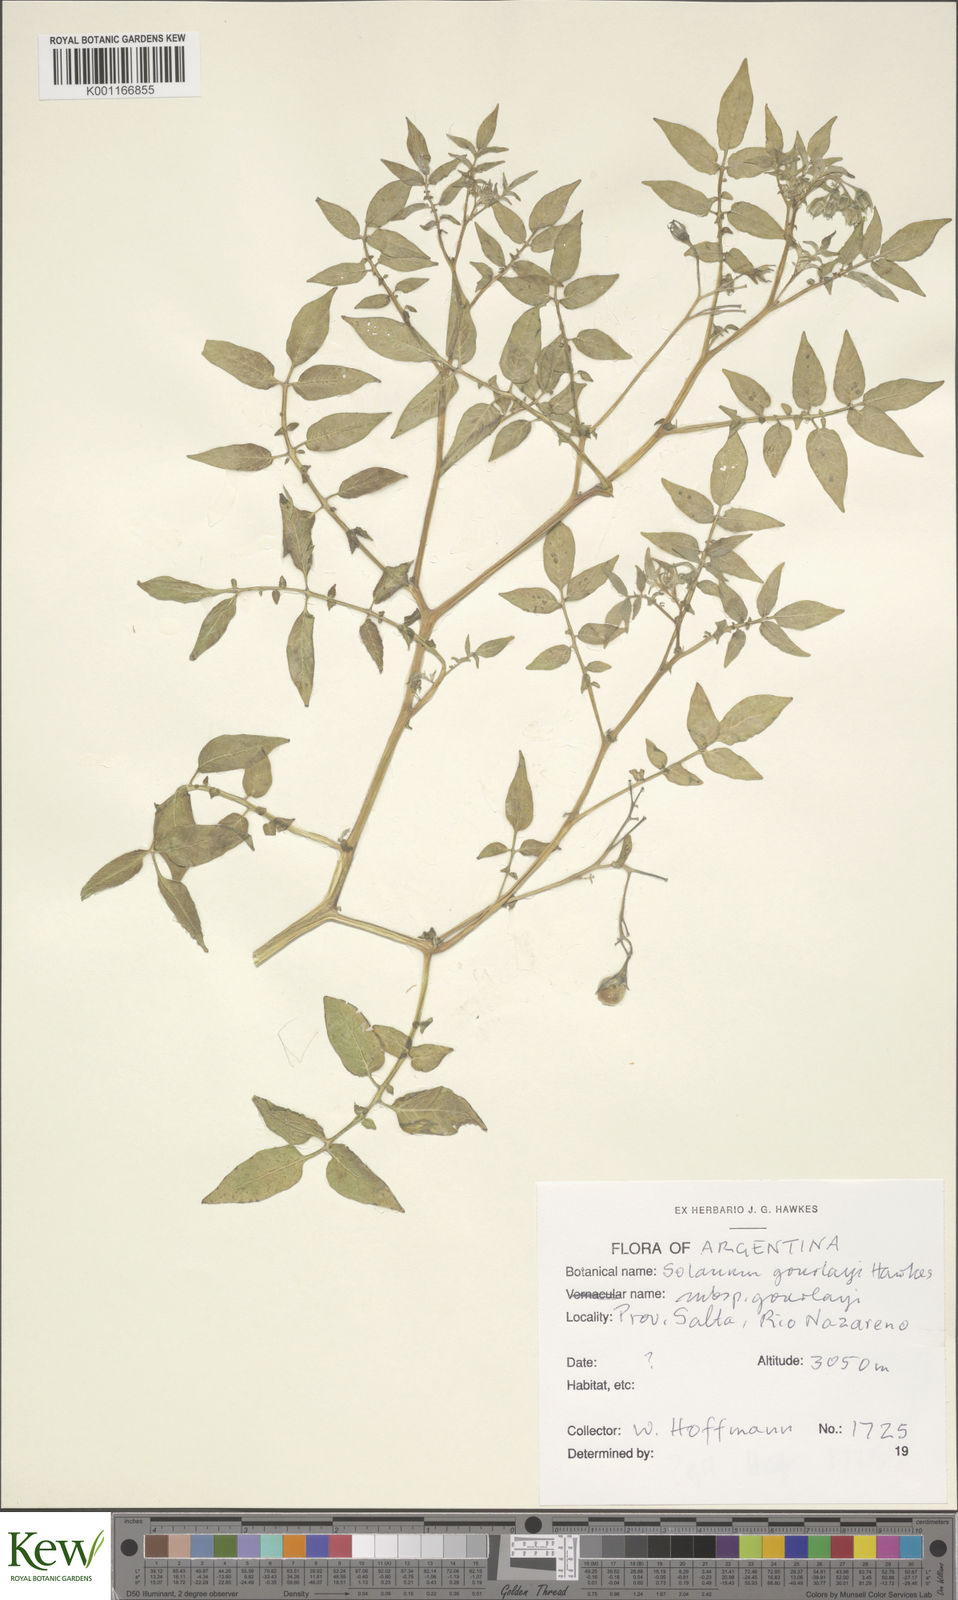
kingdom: Plantae
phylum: Tracheophyta
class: Magnoliopsida
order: Solanales
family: Solanaceae
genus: Solanum
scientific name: Solanum brevicaule
